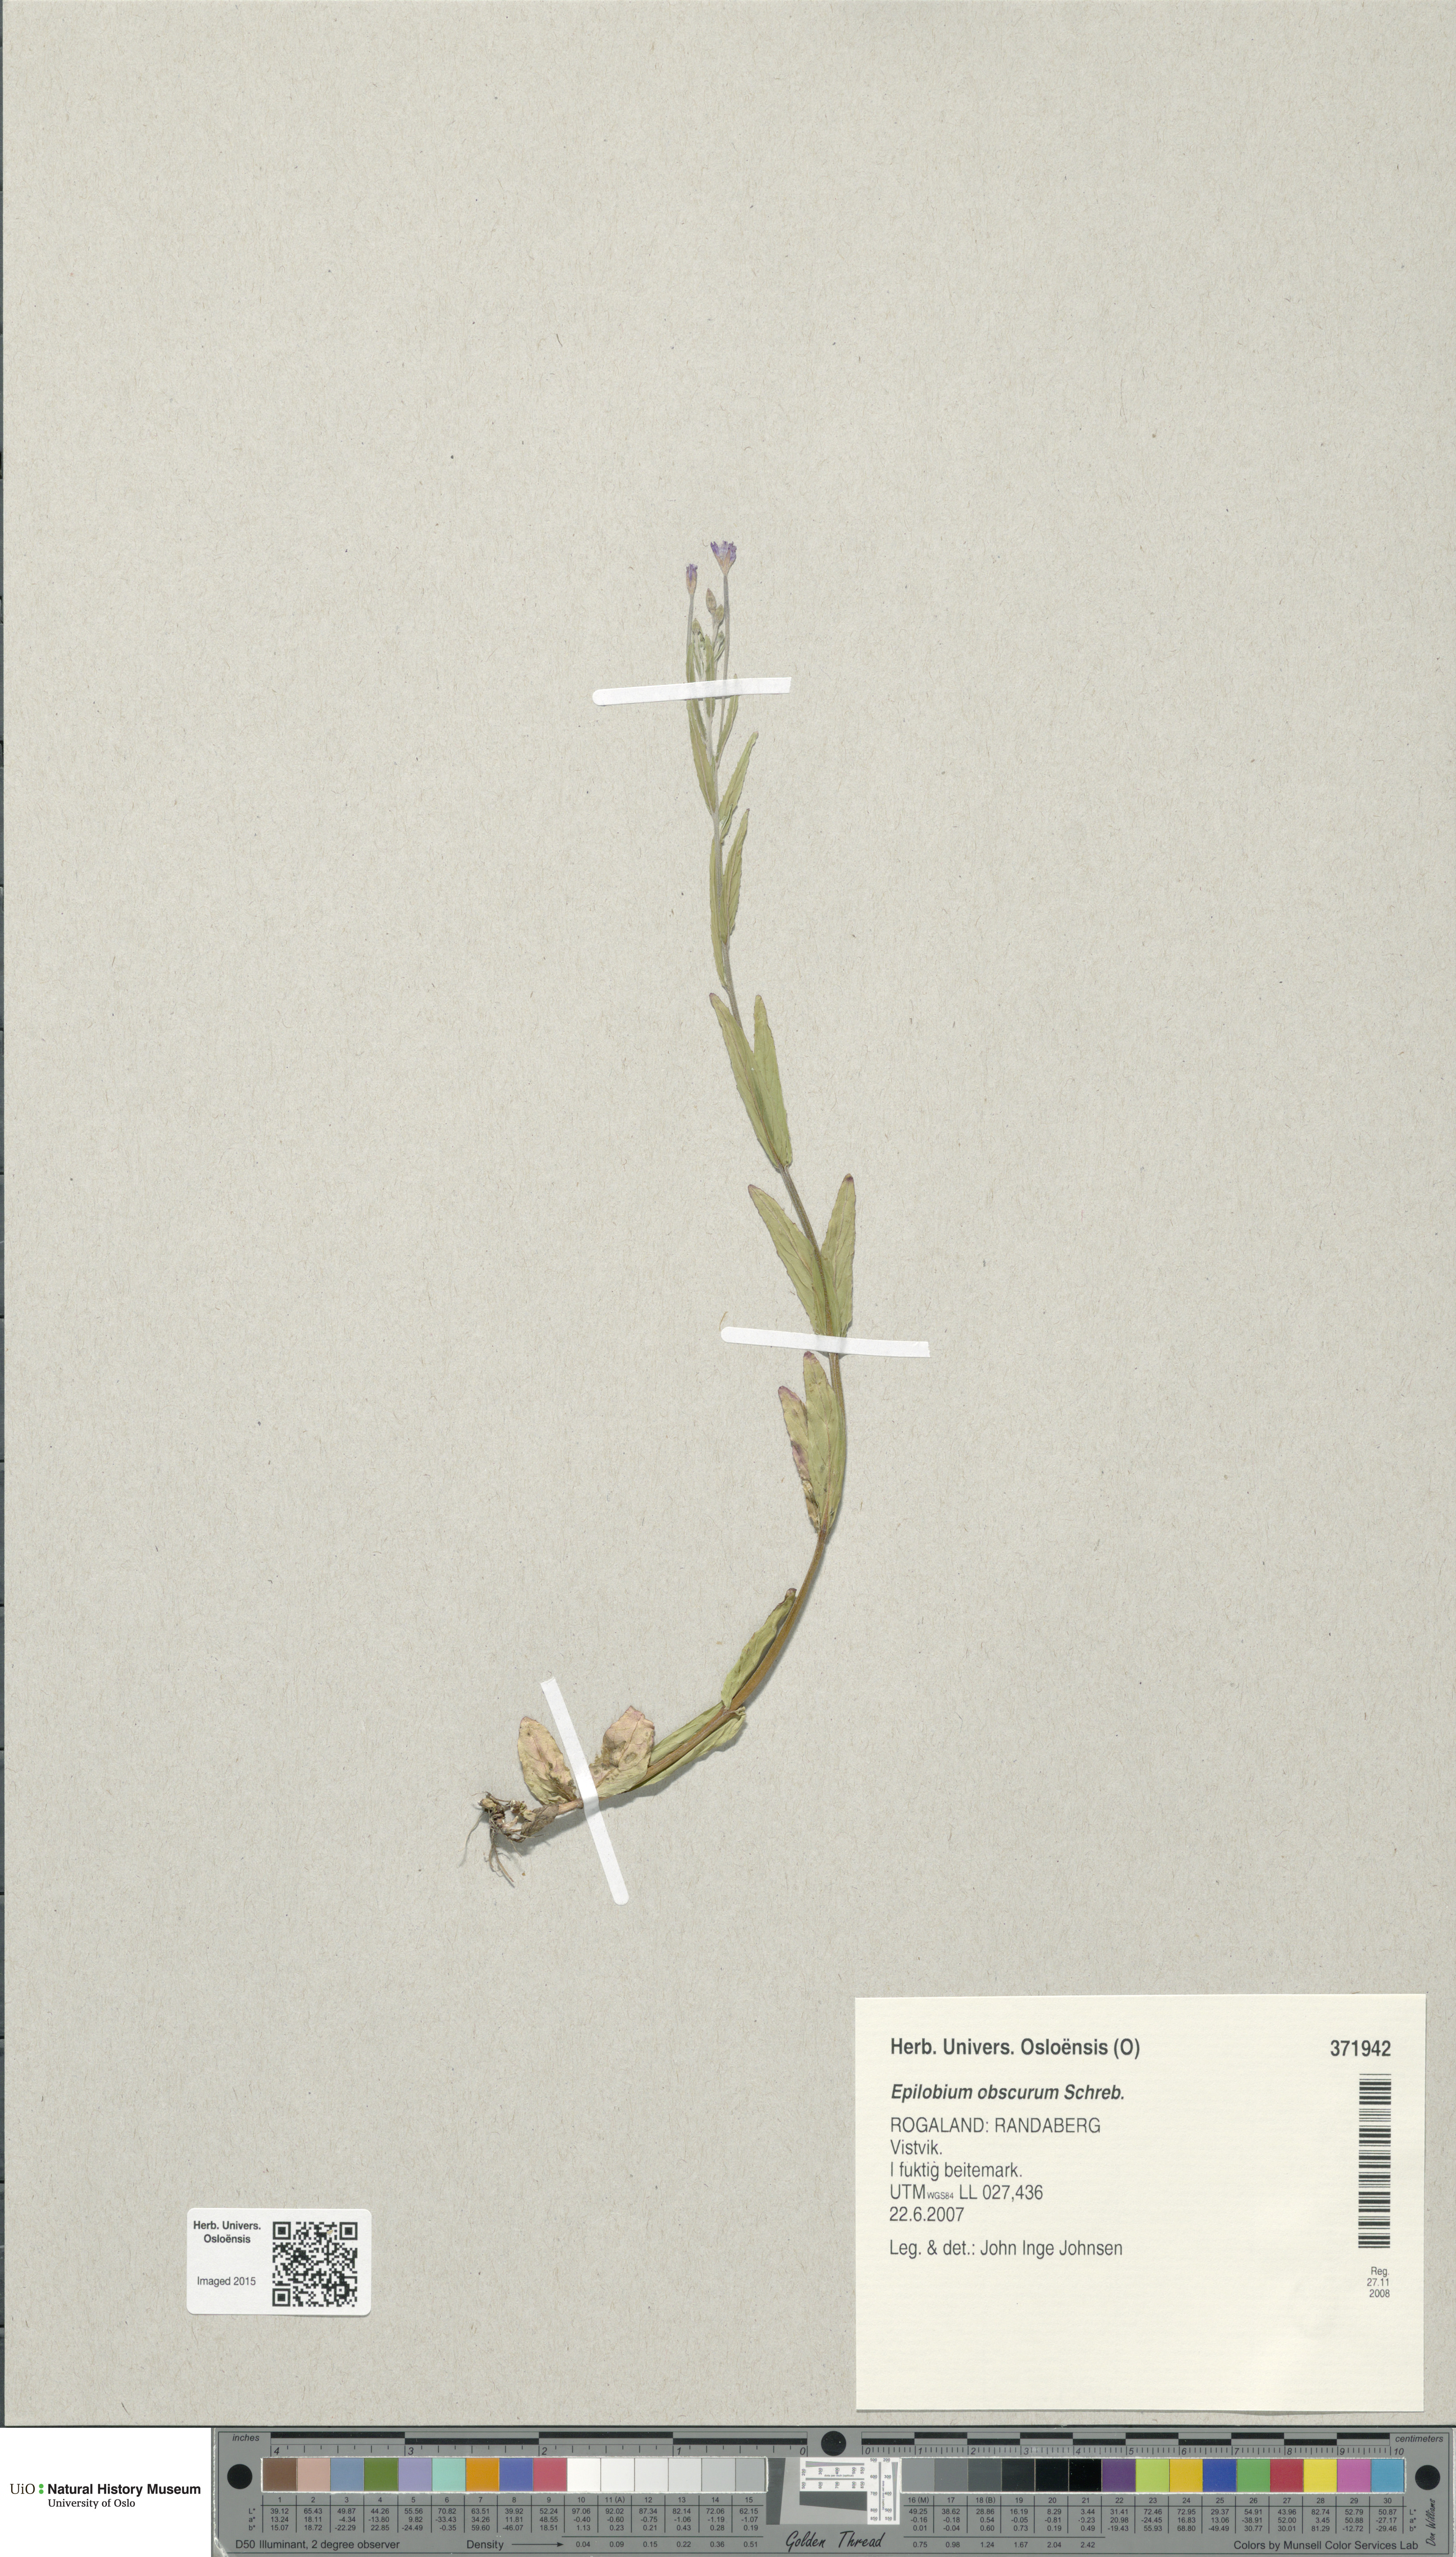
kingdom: Plantae
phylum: Tracheophyta
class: Magnoliopsida
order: Myrtales
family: Onagraceae
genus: Epilobium
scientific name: Epilobium obscurum
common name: Short-fruited willowherb
